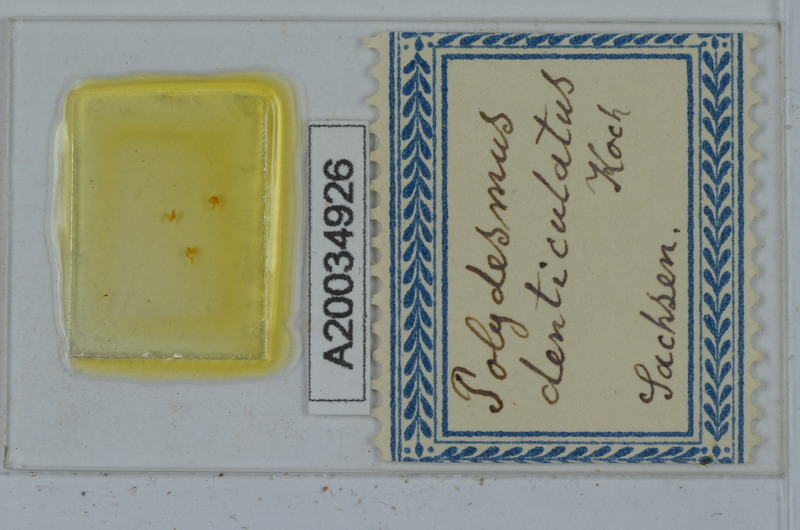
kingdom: Animalia
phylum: Arthropoda
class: Diplopoda
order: Polydesmida
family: Polydesmidae
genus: Polydesmus
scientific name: Polydesmus denticulatus
